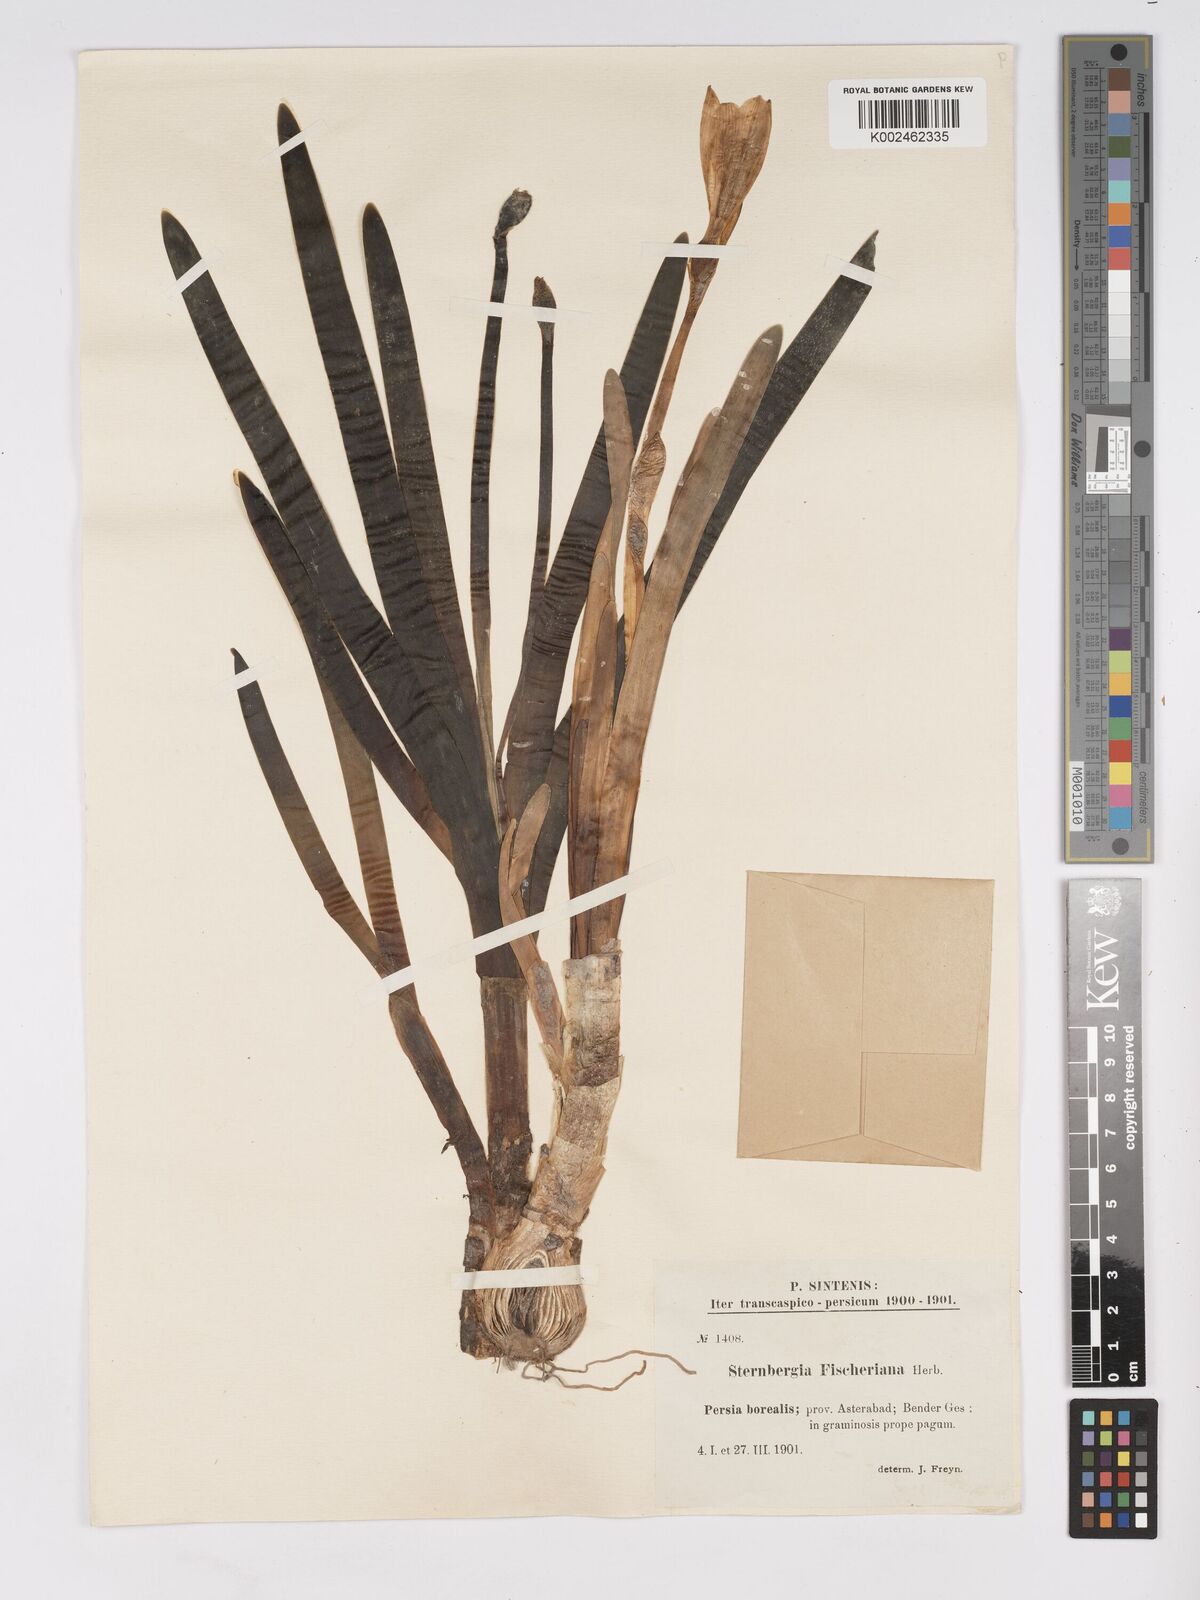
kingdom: Plantae
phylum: Tracheophyta
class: Liliopsida
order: Asparagales
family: Amaryllidaceae
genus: Sternbergia
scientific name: Sternbergia vernalis
